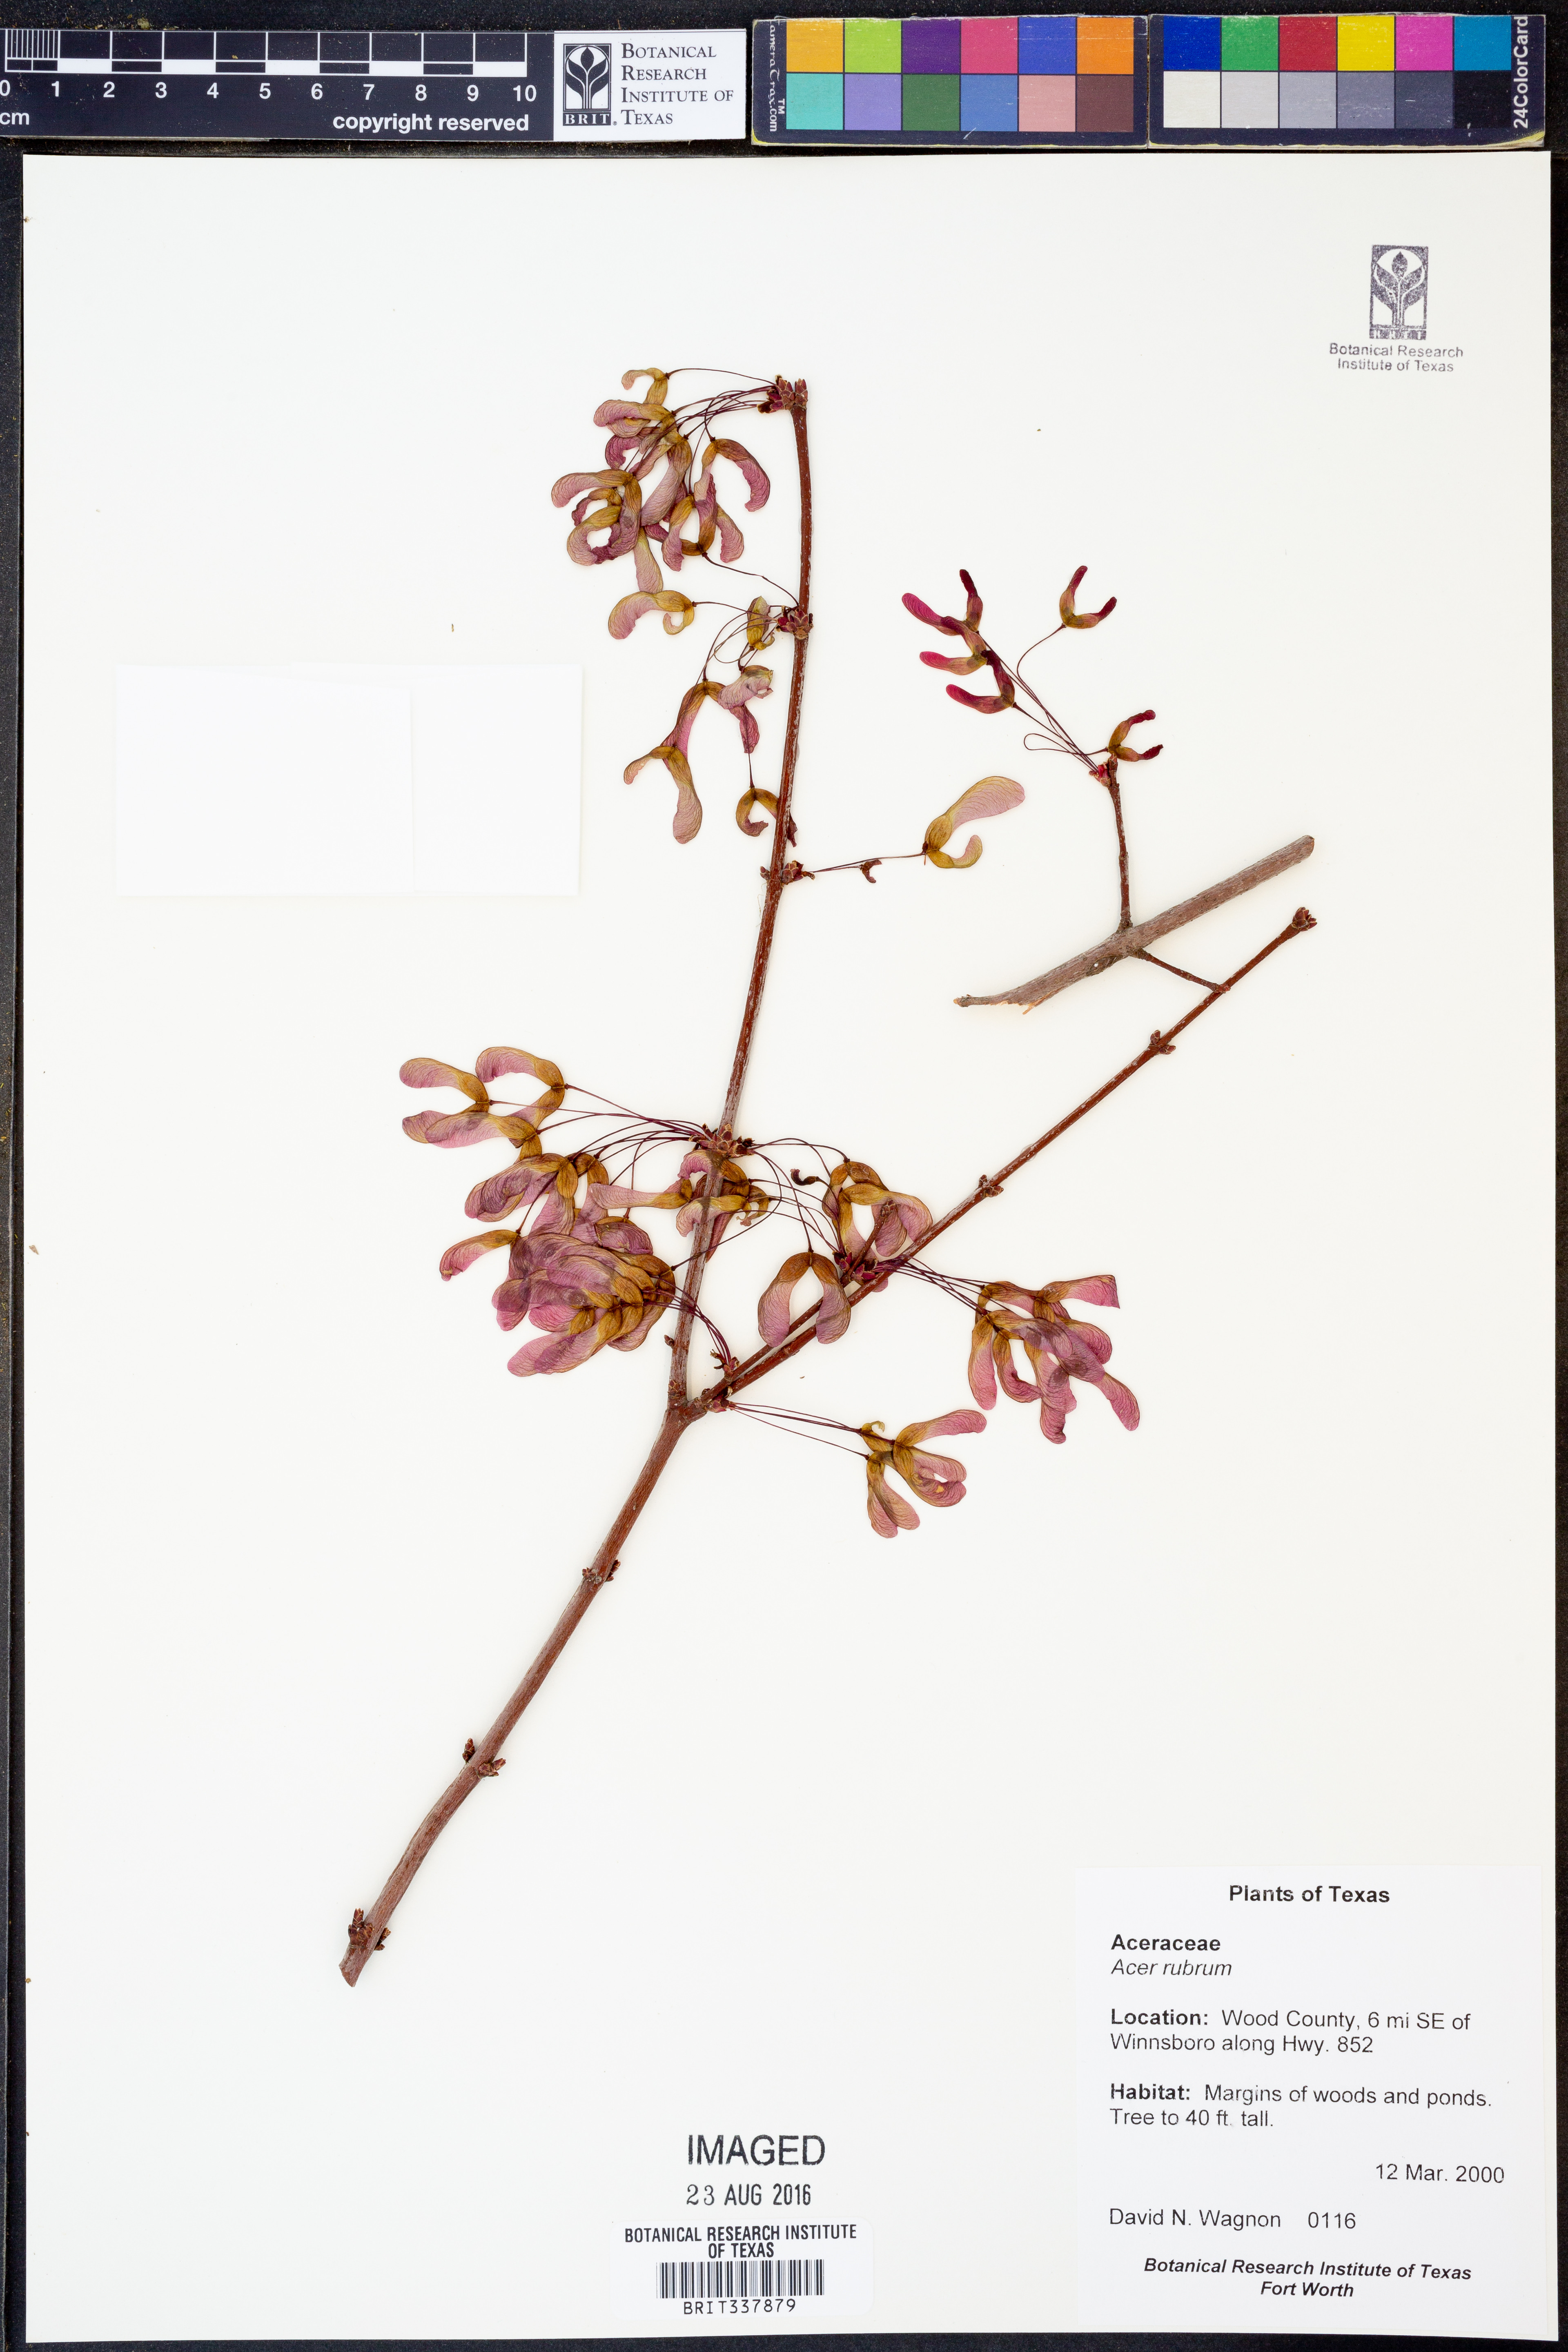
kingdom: Plantae
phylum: Tracheophyta
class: Magnoliopsida
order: Sapindales
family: Sapindaceae
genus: Acer
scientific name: Acer rubrum
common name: Red maple
